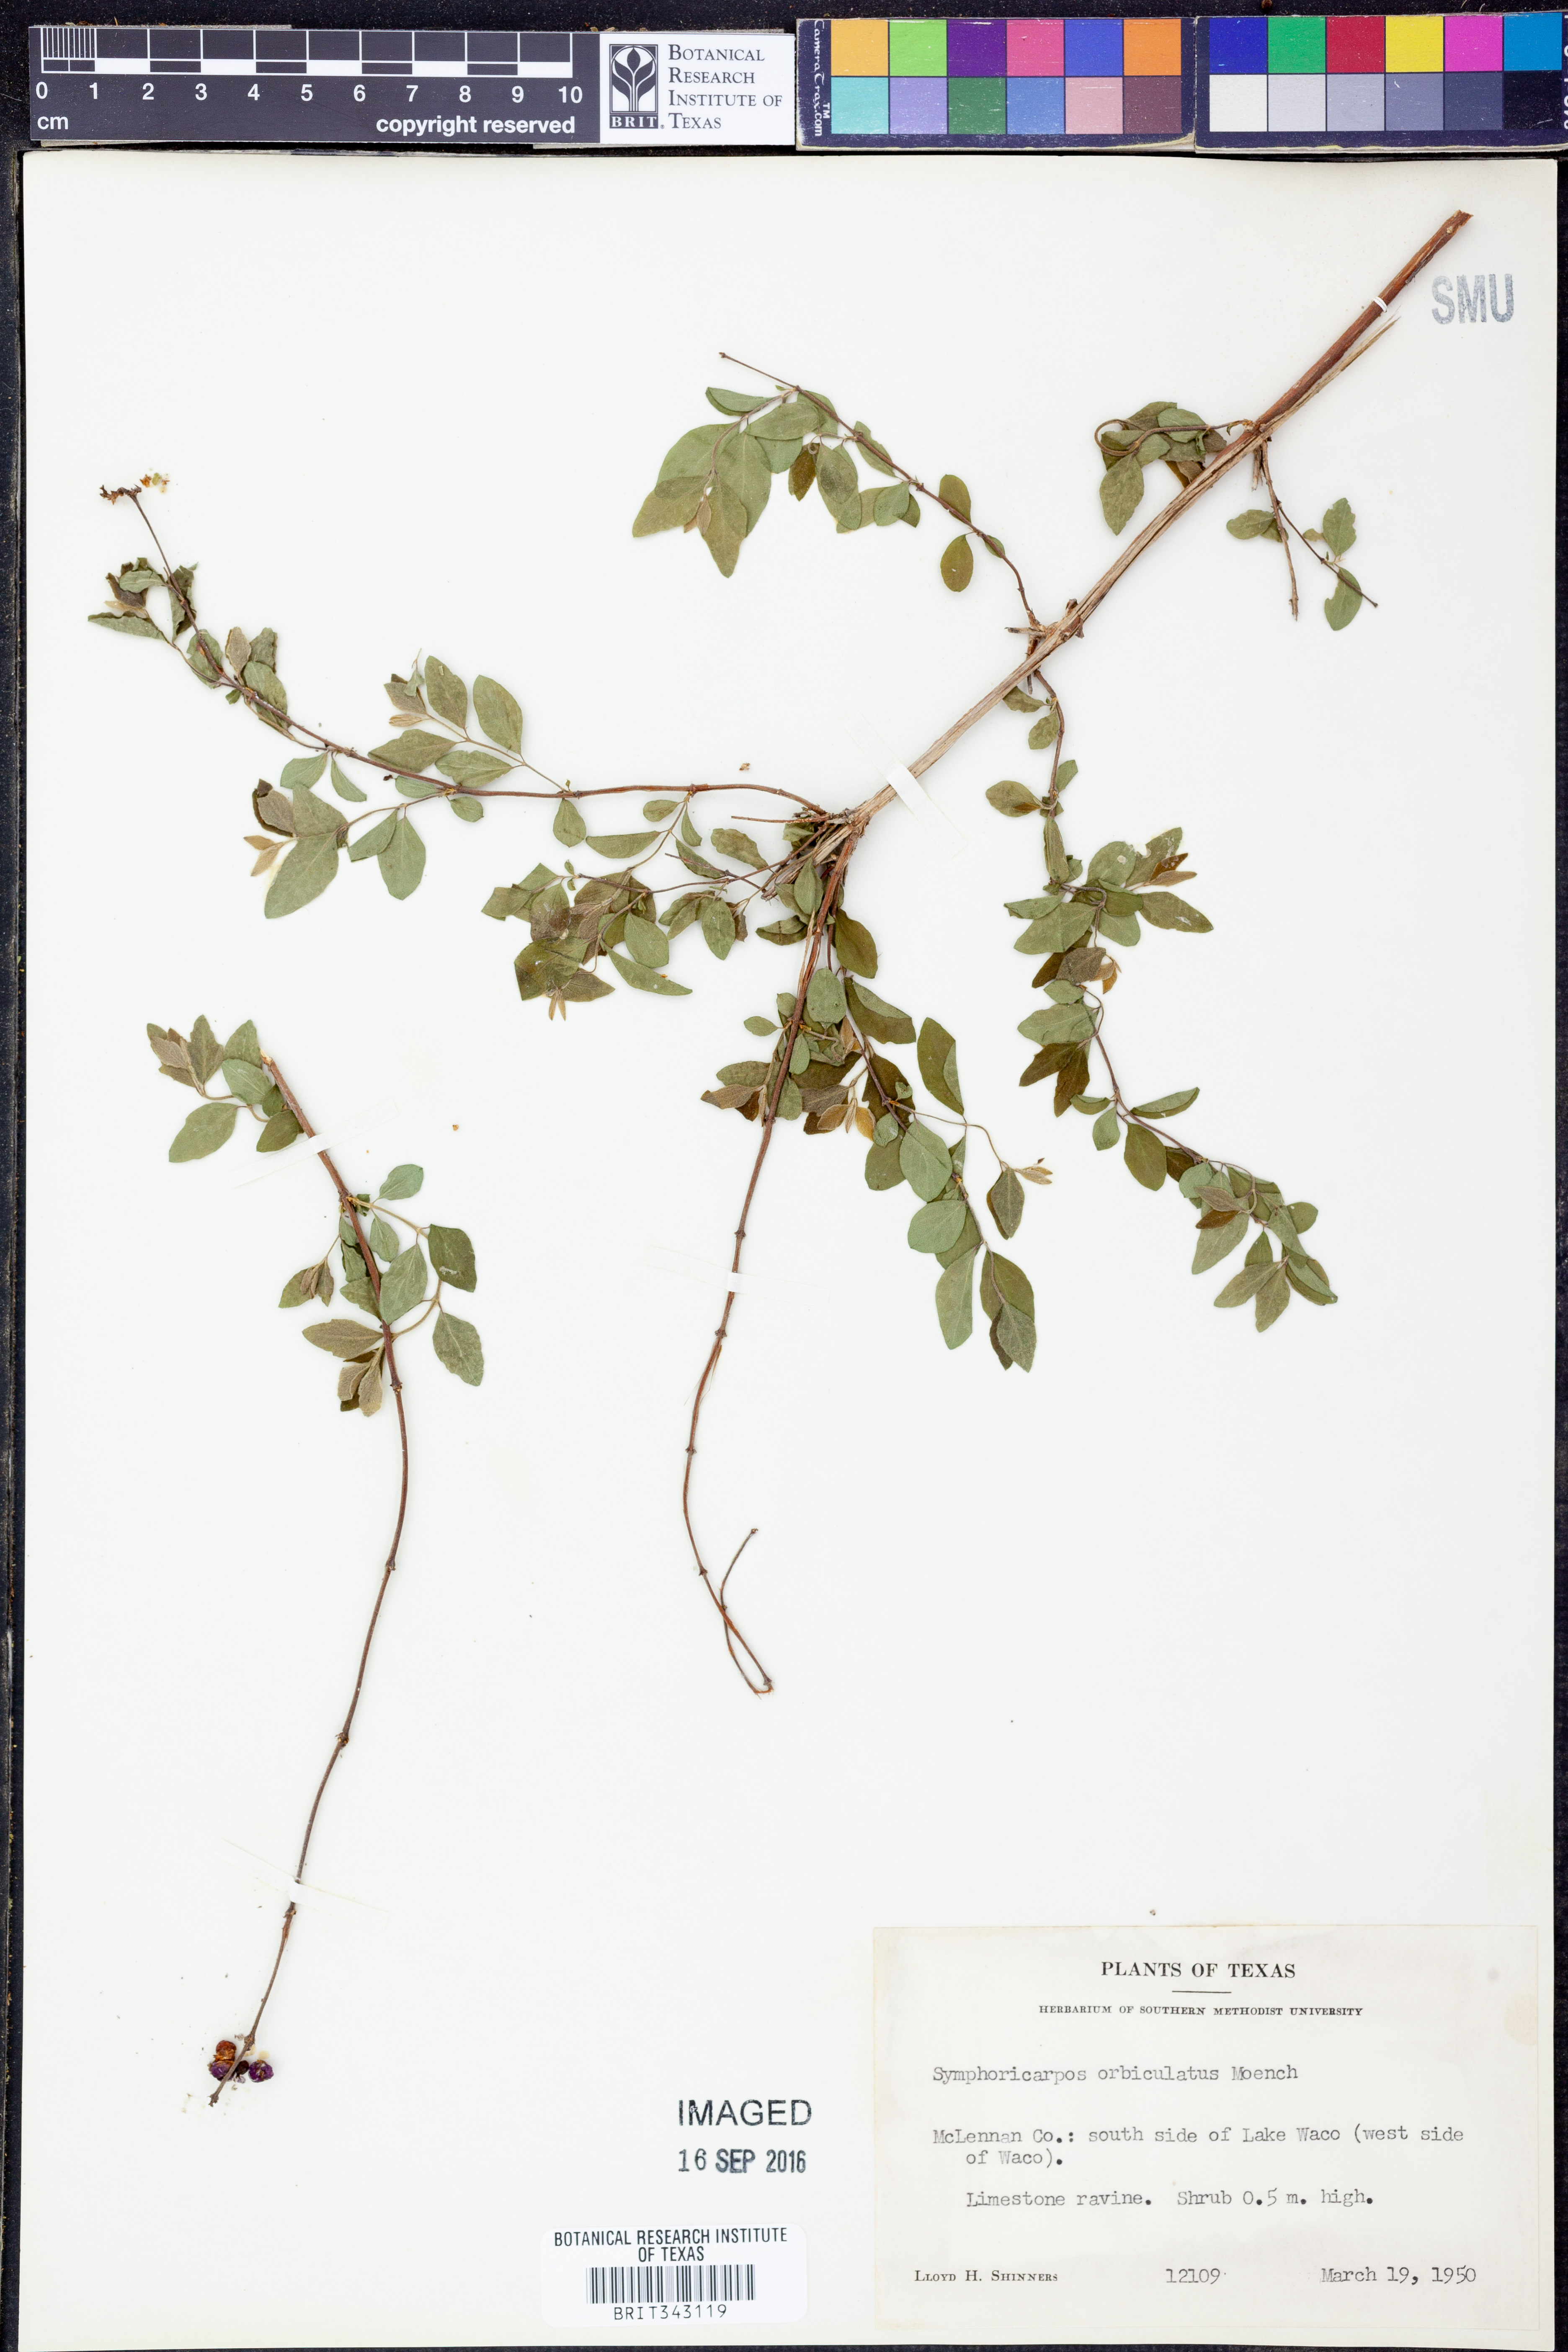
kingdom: Plantae
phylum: Tracheophyta
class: Magnoliopsida
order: Dipsacales
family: Caprifoliaceae
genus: Symphoricarpos
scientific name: Symphoricarpos orbiculatus
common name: Coralberry
